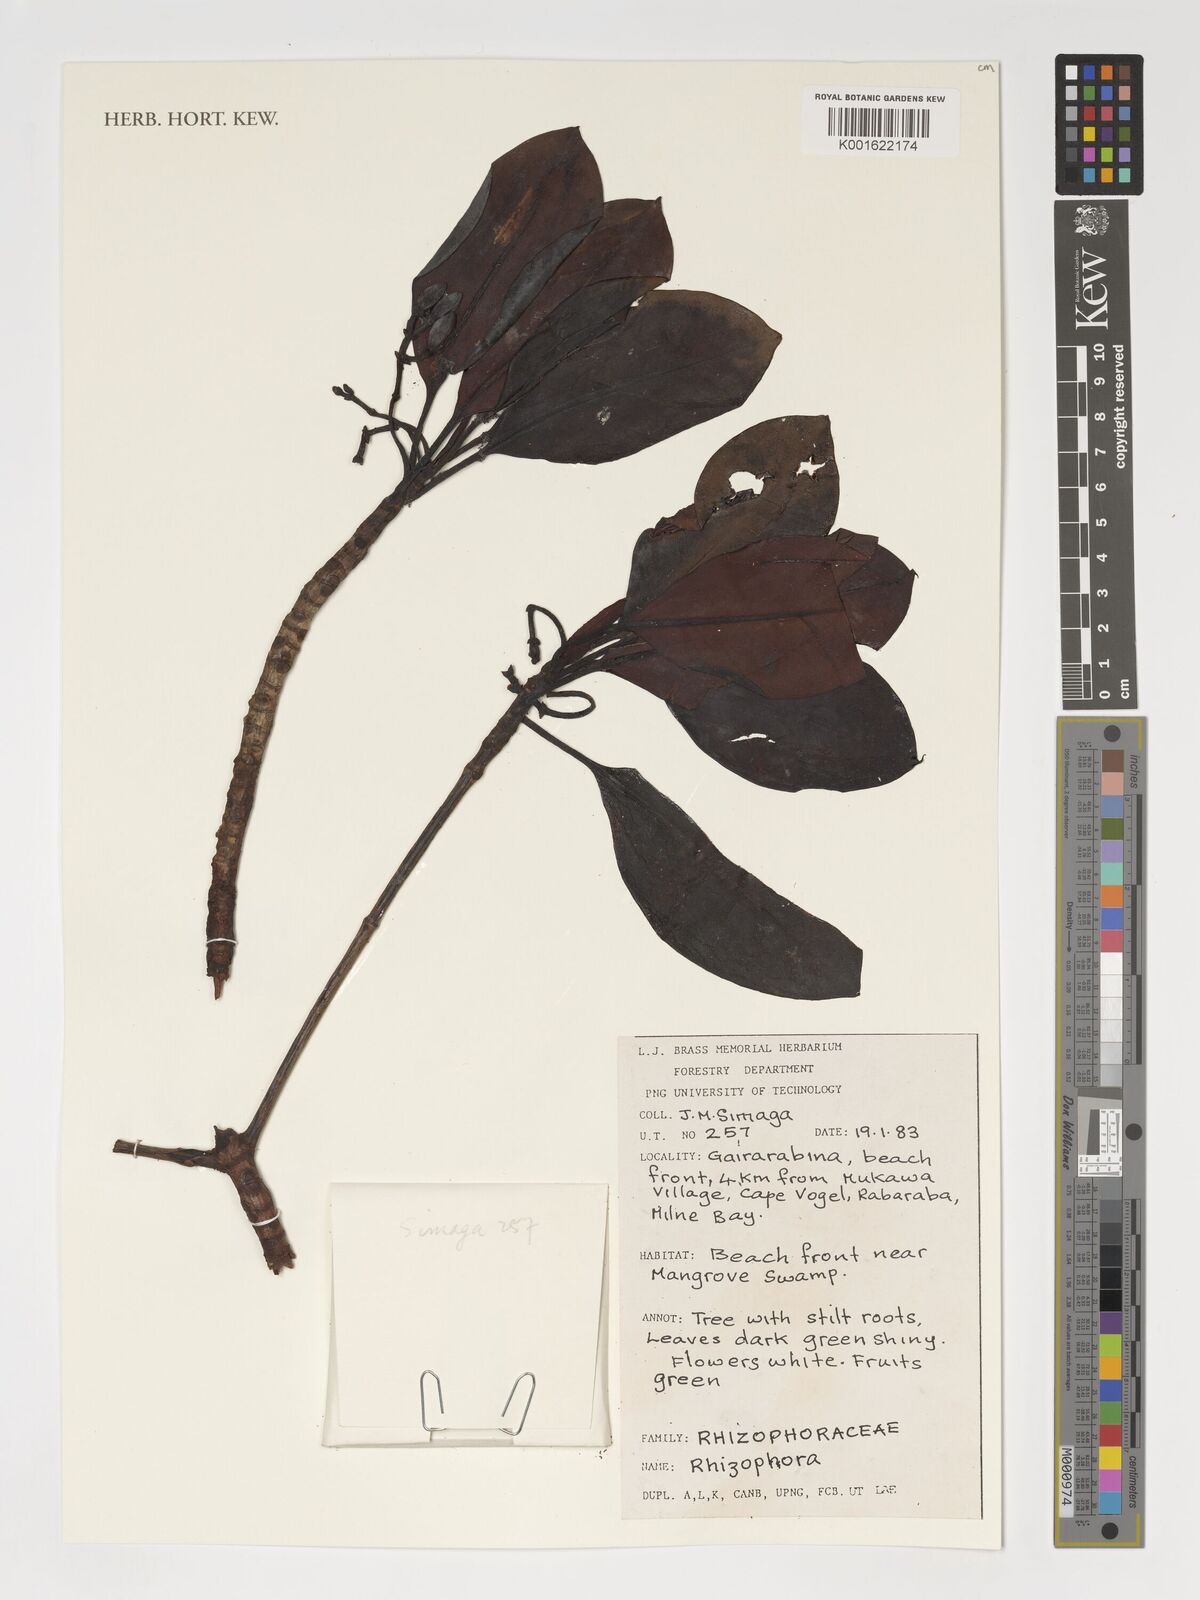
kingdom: Plantae
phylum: Tracheophyta
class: Magnoliopsida
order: Malpighiales
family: Rhizophoraceae
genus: Rhizophora
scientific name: Rhizophora
